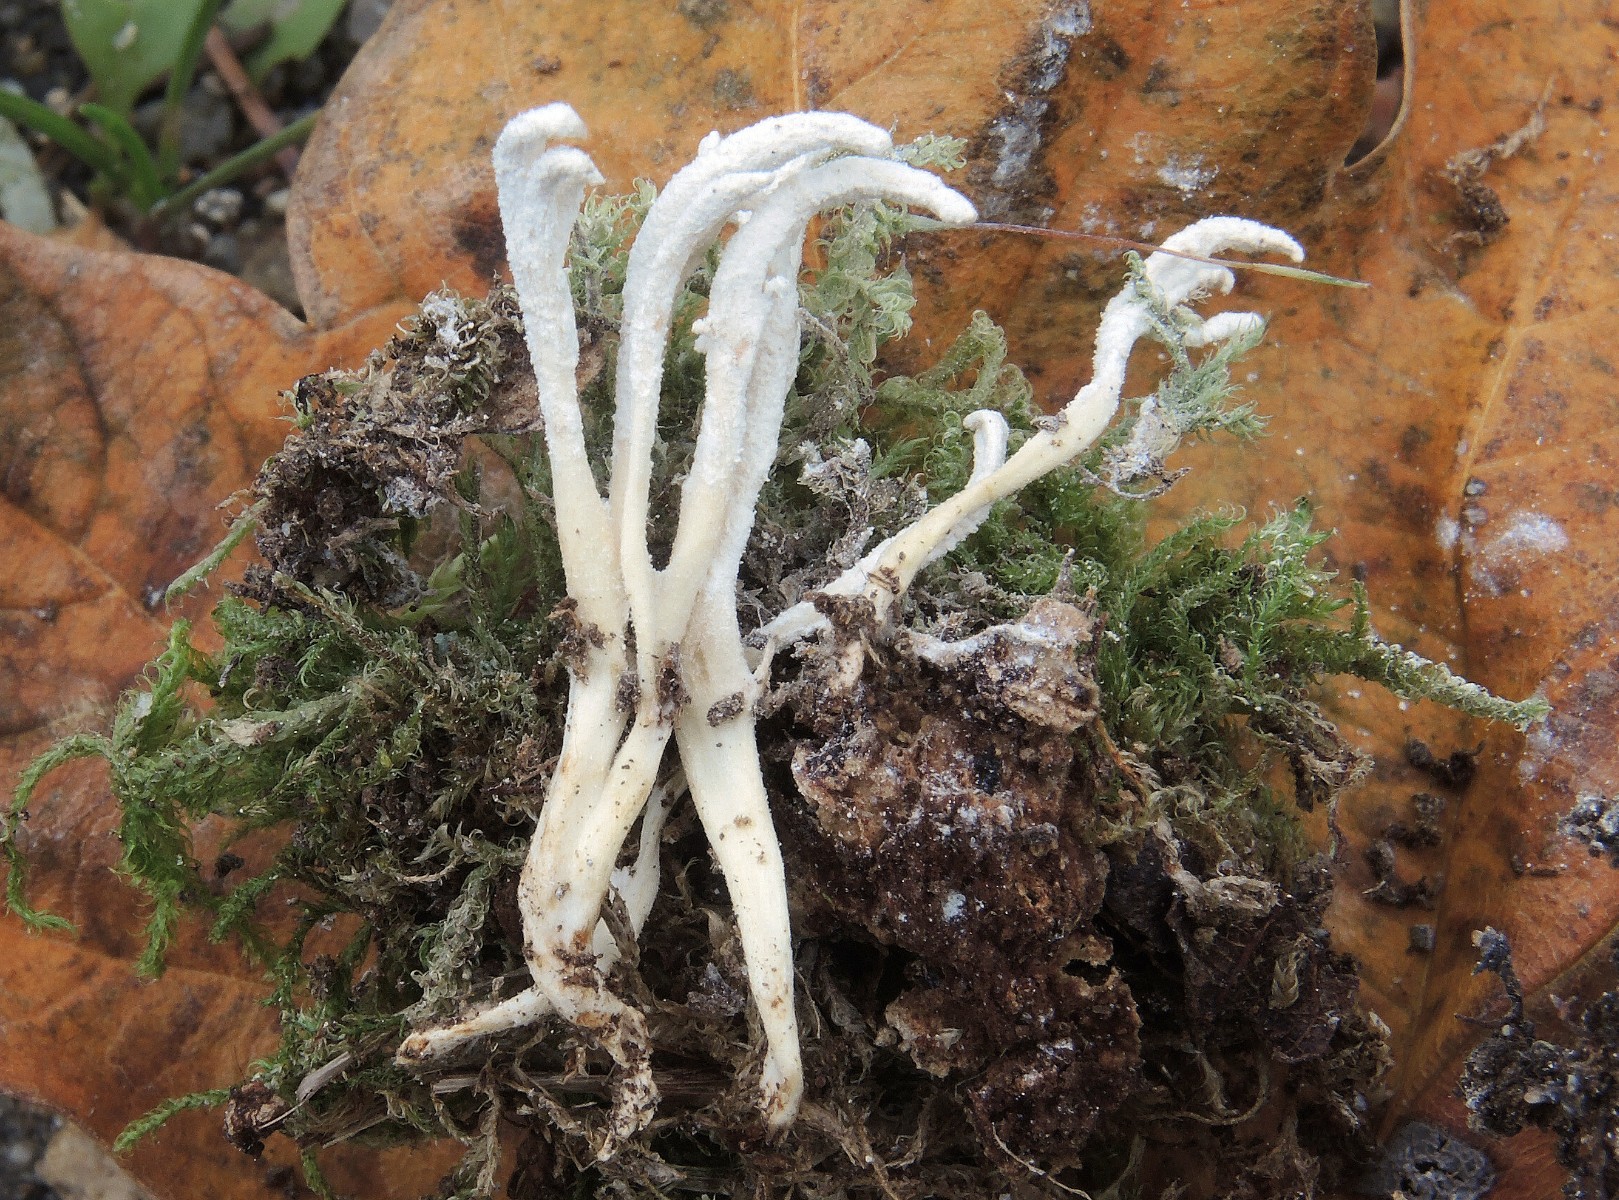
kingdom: Fungi
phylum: Ascomycota
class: Sordariomycetes
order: Hypocreales
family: Cordycipitaceae
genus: Cordyceps
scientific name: Cordyceps farinosa
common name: melet snyltekølle
